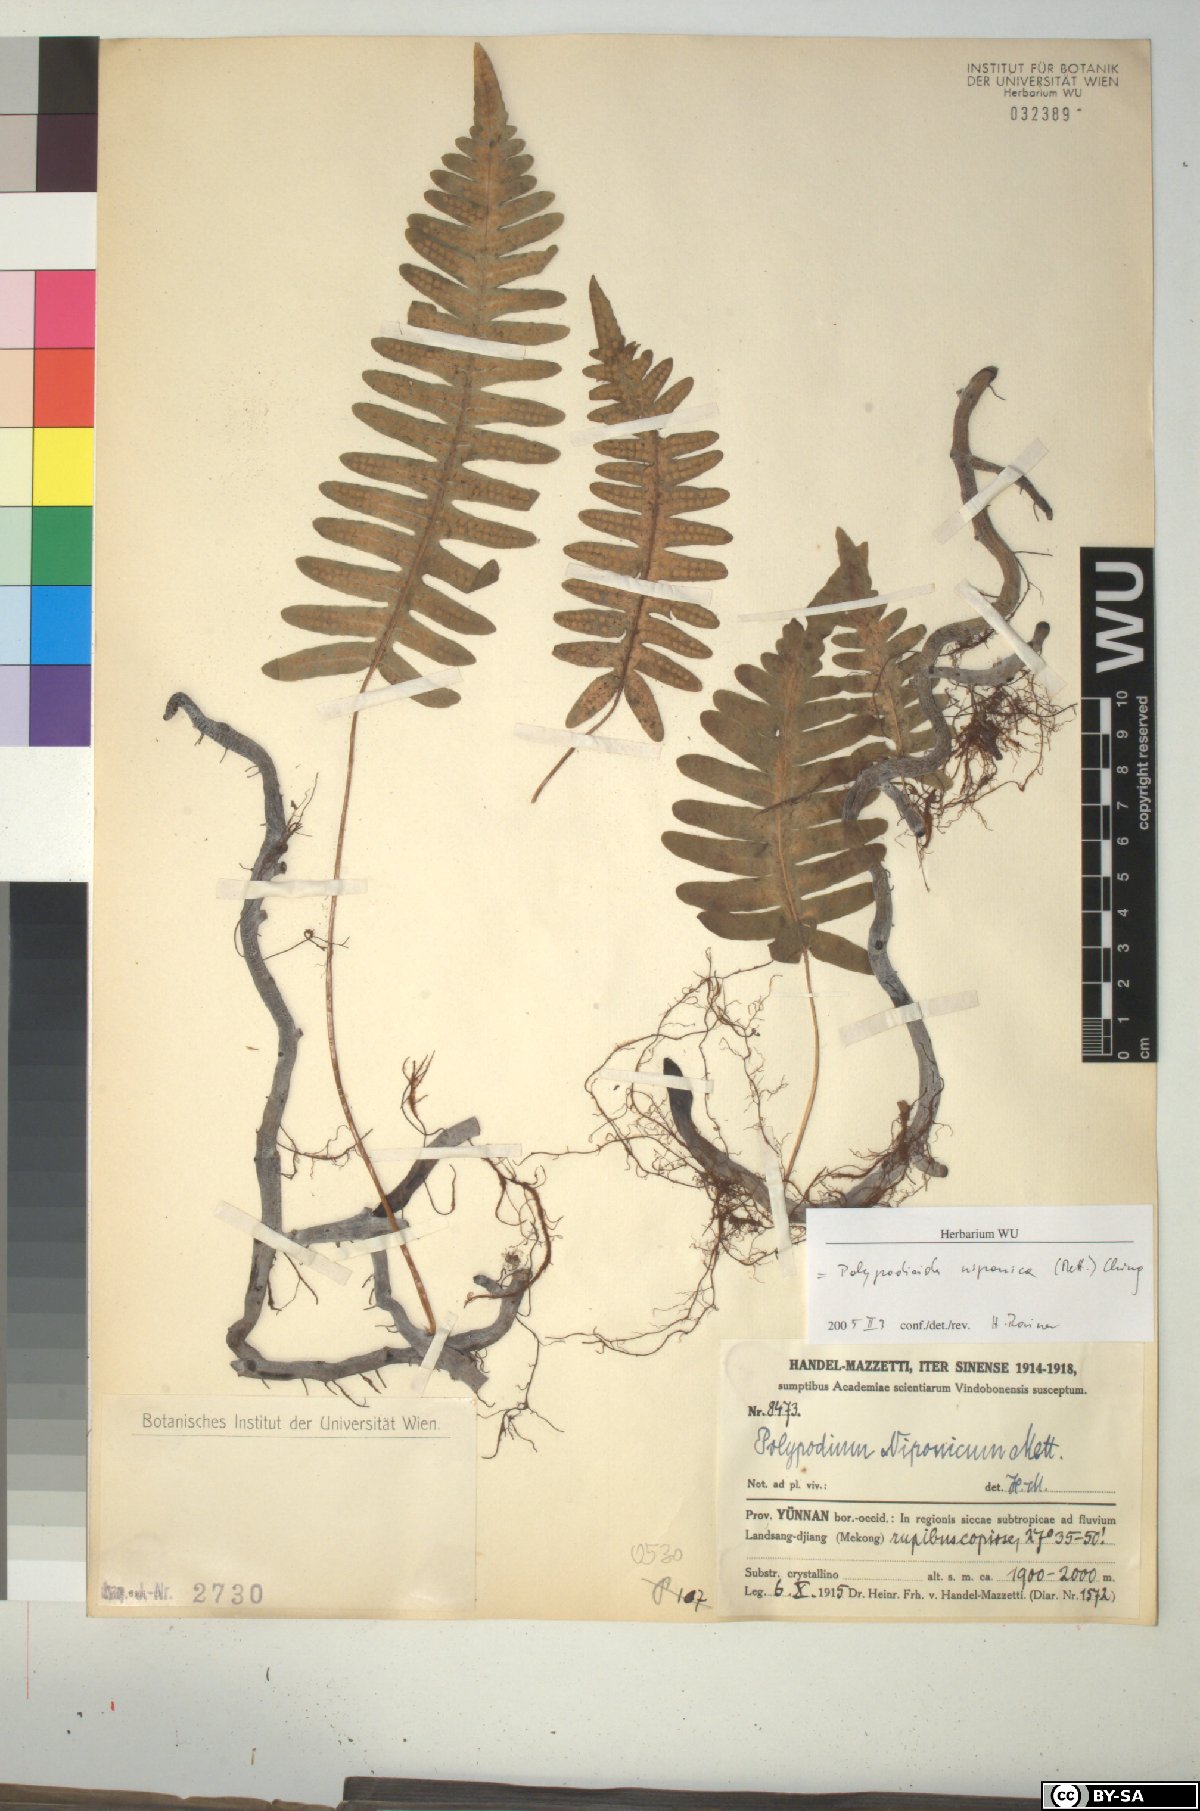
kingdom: Plantae
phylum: Tracheophyta
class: Polypodiopsida
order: Polypodiales
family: Polypodiaceae
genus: Goniophlebium
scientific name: Goniophlebium niponicum
